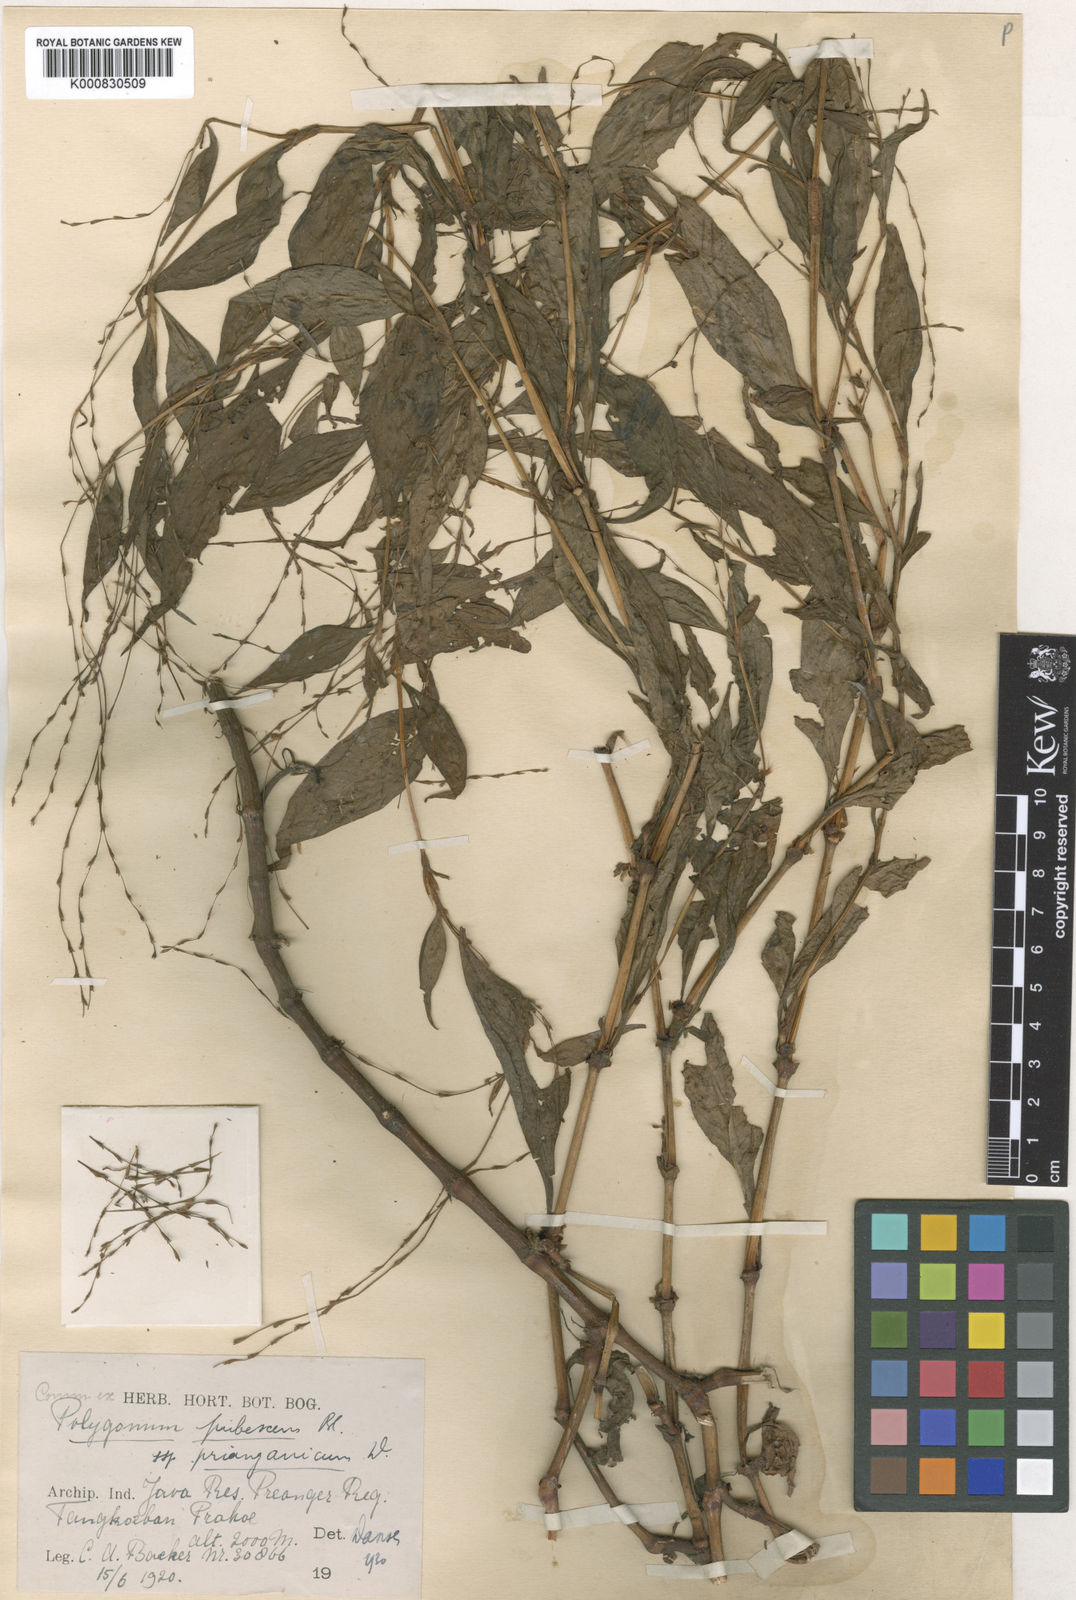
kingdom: Plantae
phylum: Tracheophyta
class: Magnoliopsida
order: Caryophyllales
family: Polygonaceae
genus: Persicaria
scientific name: Persicaria pubescens
